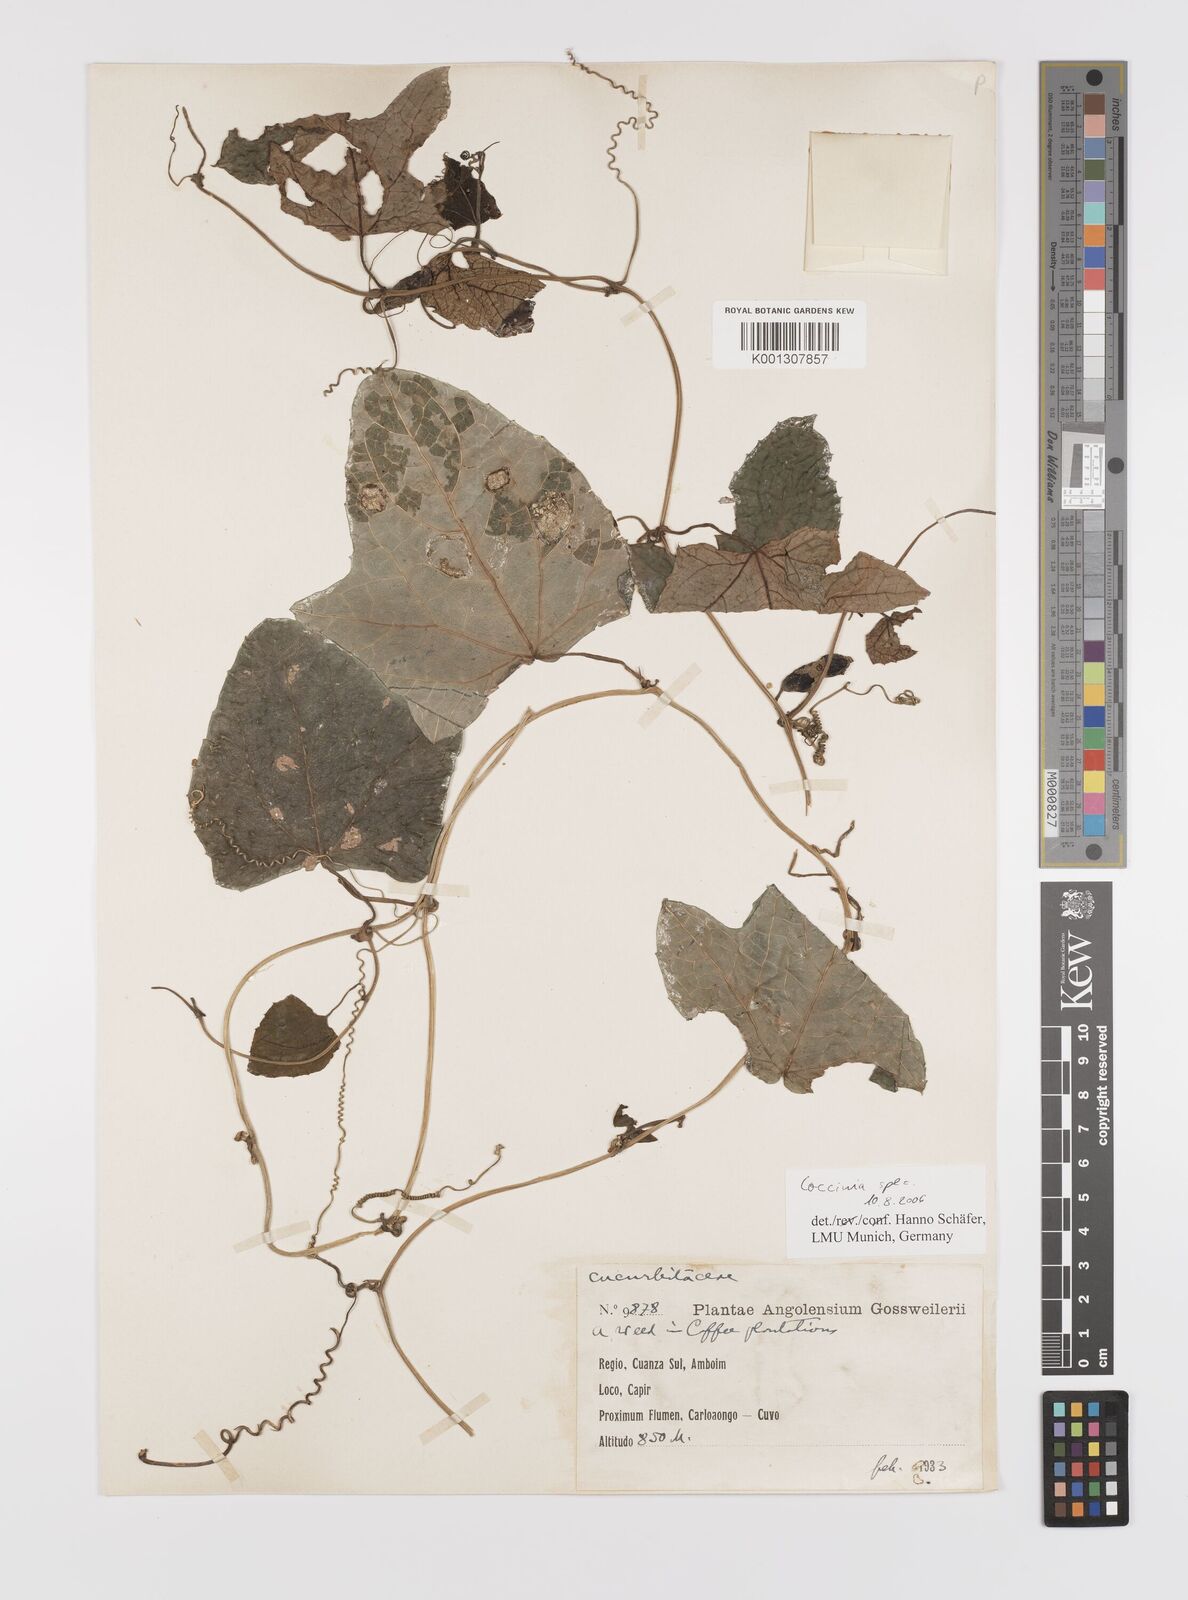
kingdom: Plantae
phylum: Tracheophyta
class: Magnoliopsida
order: Cucurbitales
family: Cucurbitaceae
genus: Coccinia
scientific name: Coccinia
